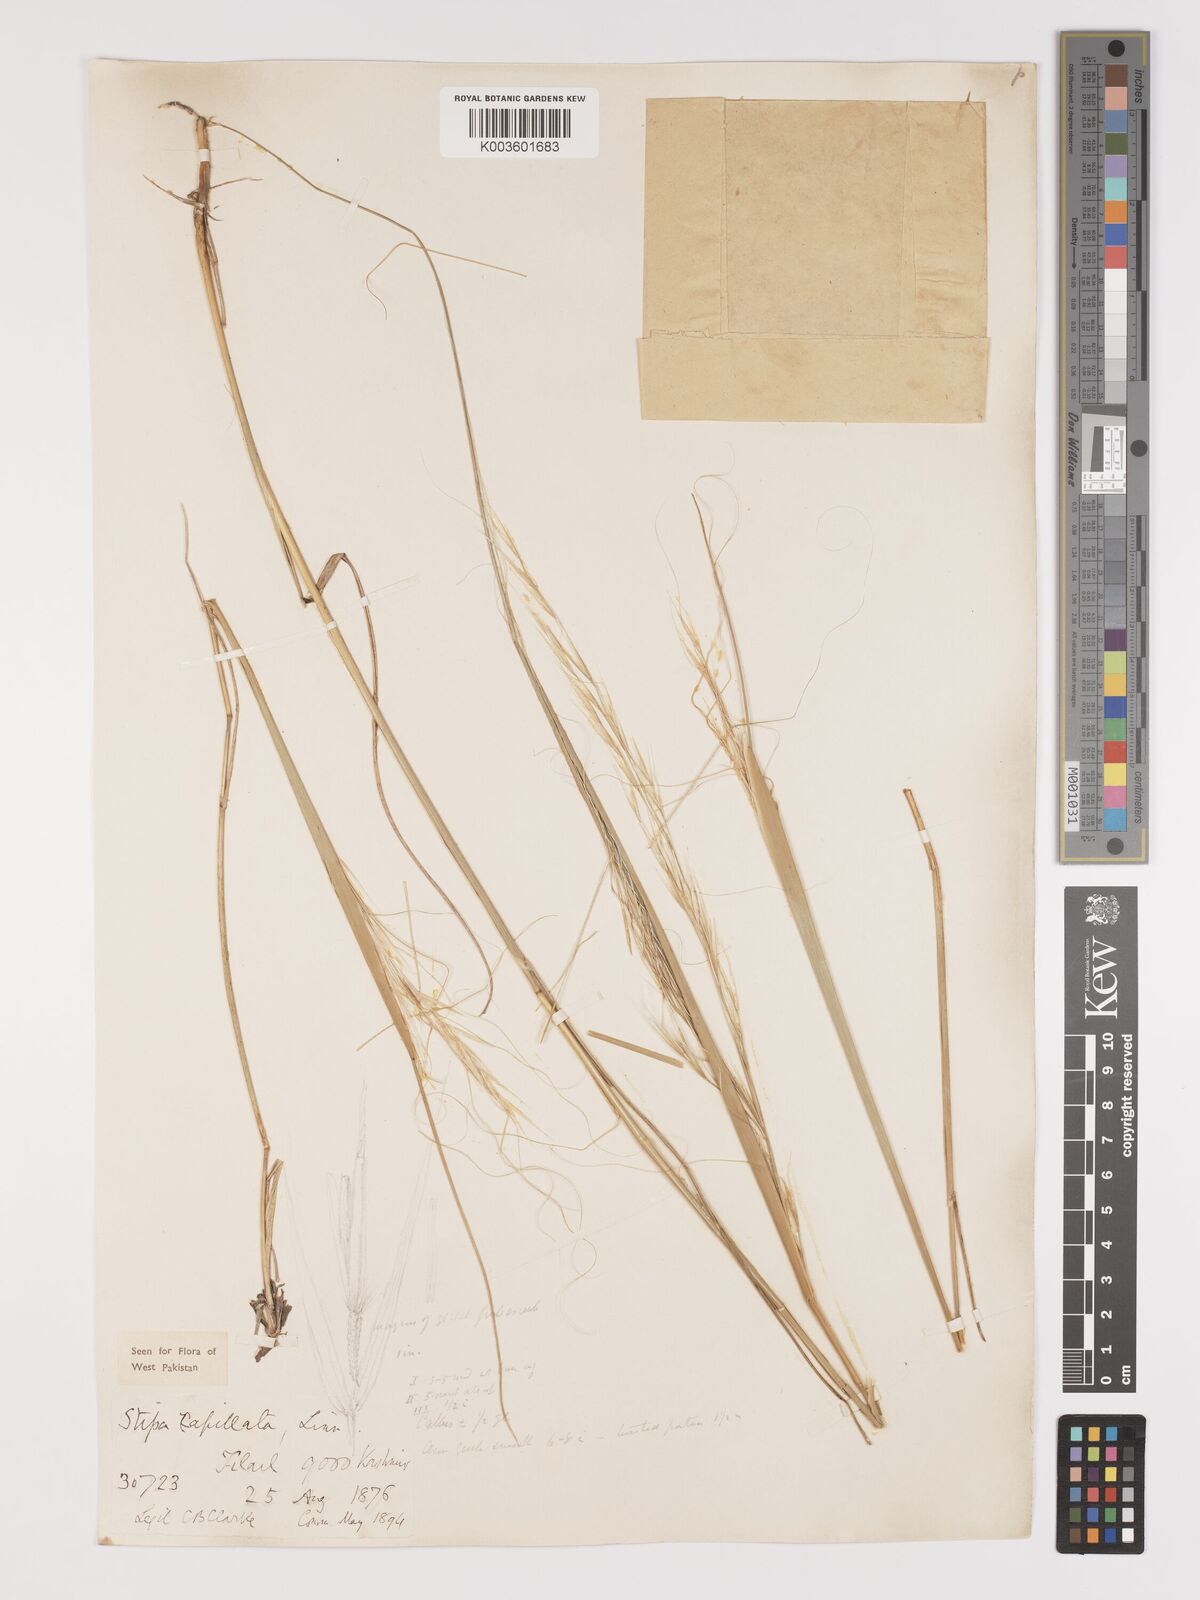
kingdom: Plantae
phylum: Tracheophyta
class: Liliopsida
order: Poales
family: Poaceae
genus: Stipa
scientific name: Stipa capillata
